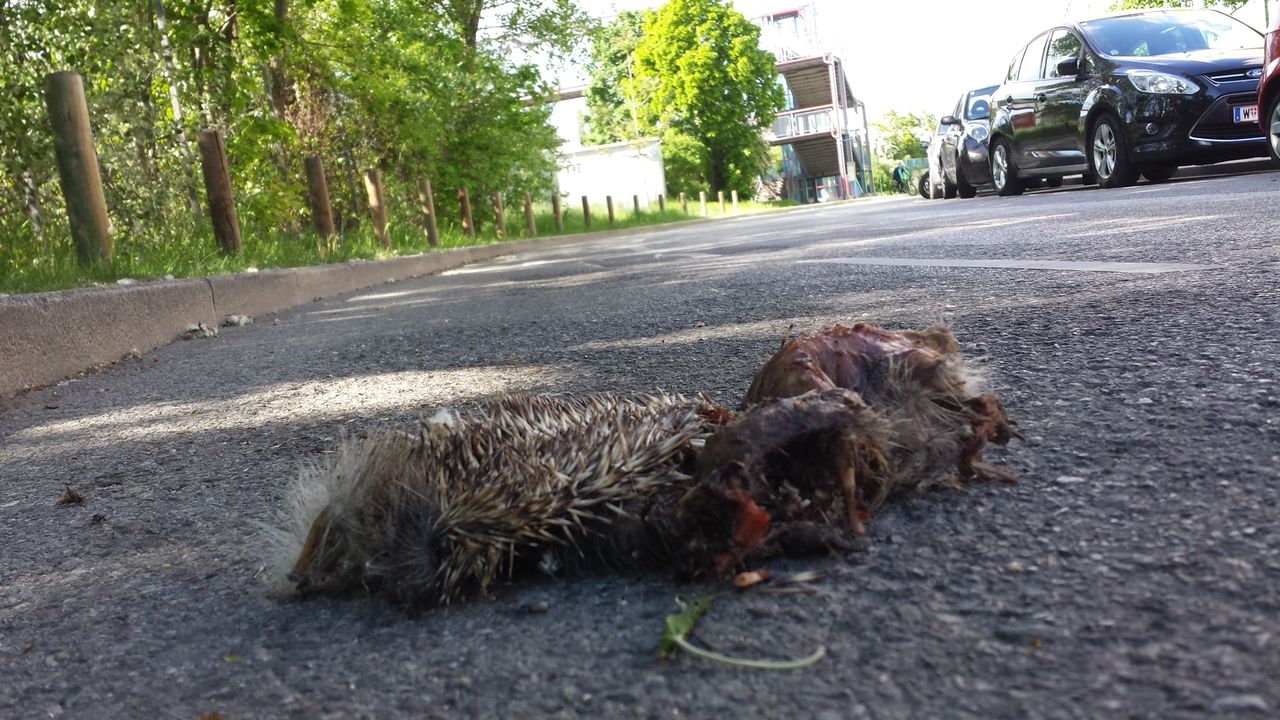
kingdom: Animalia
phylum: Chordata
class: Mammalia
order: Erinaceomorpha
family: Erinaceidae
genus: Erinaceus
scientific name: Erinaceus
